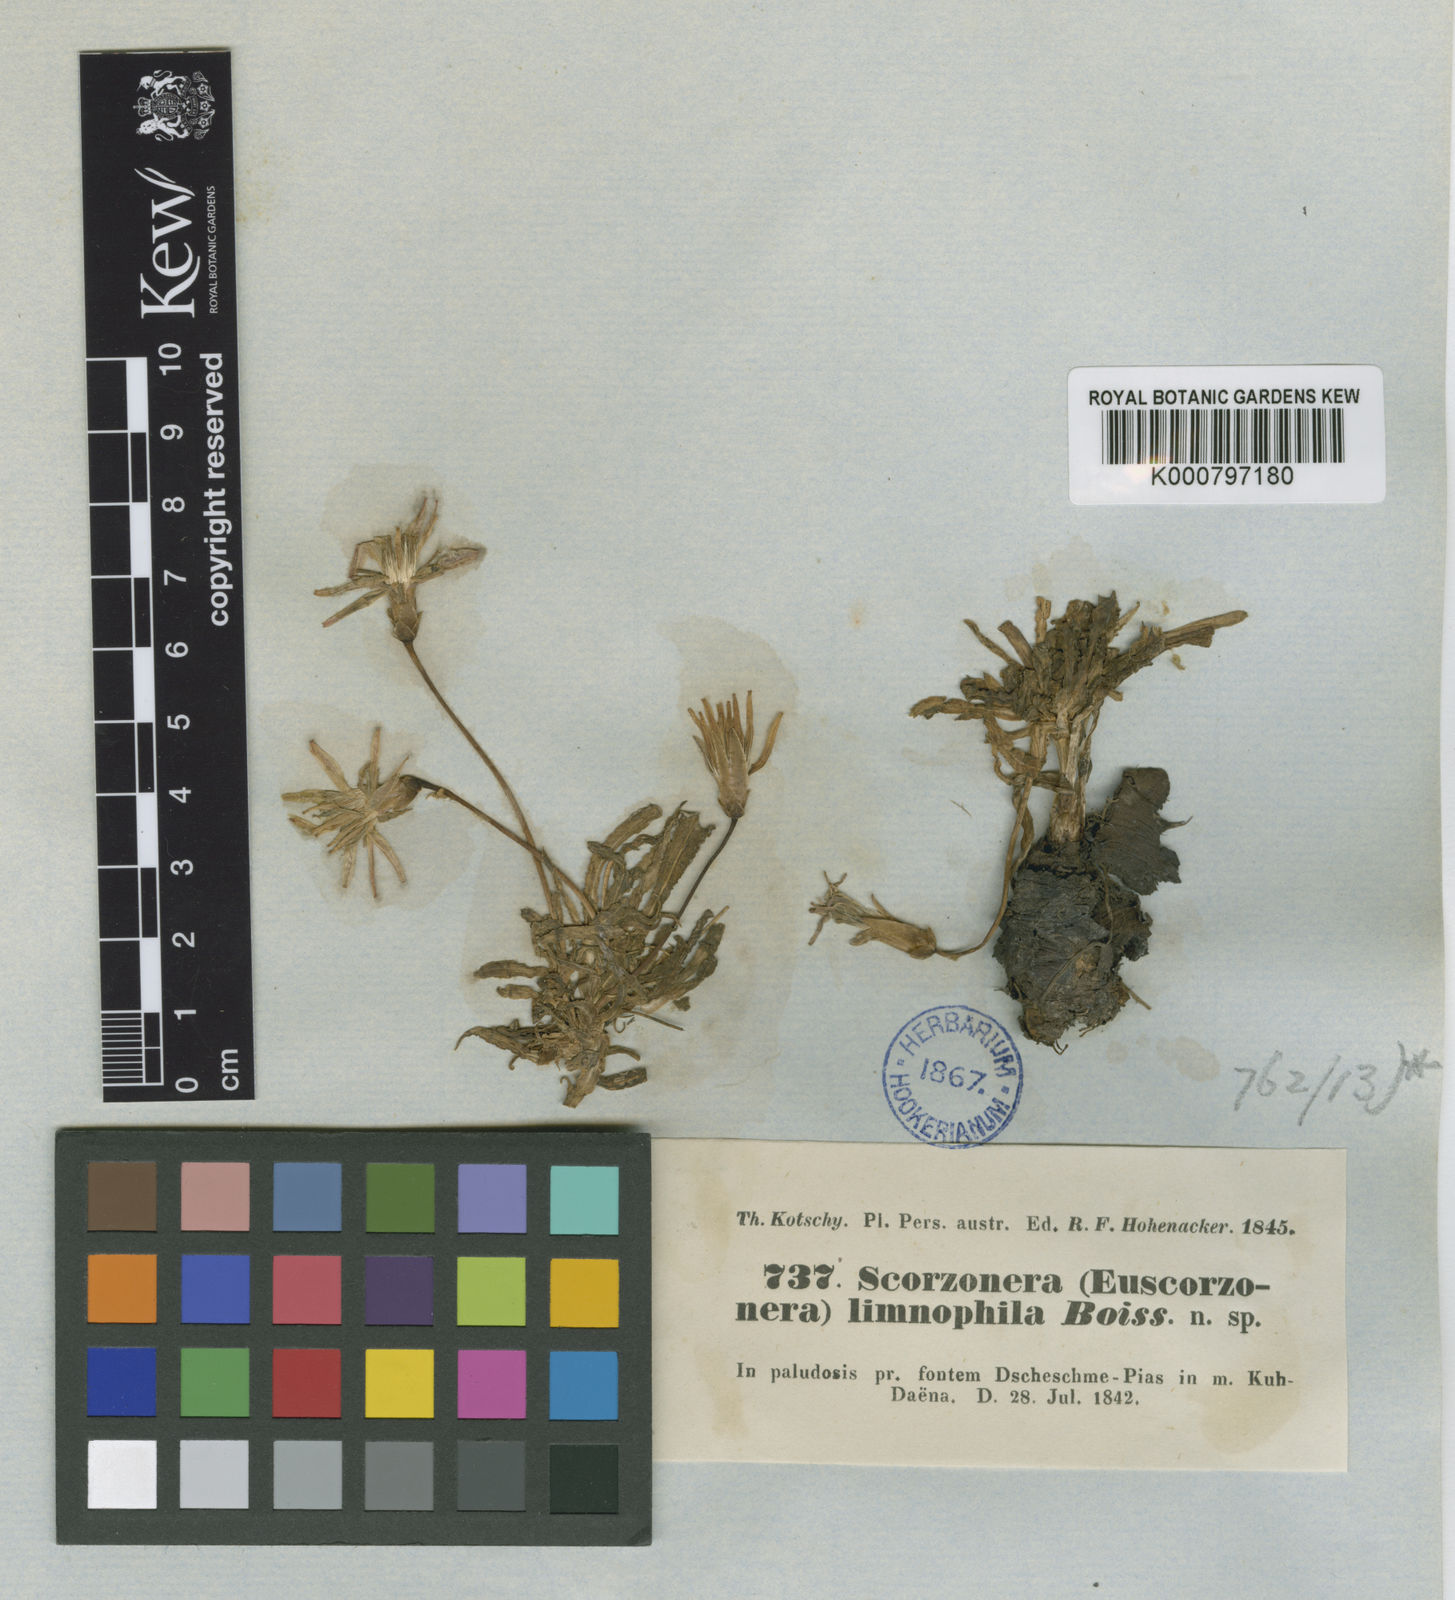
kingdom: Plantae
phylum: Tracheophyta
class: Magnoliopsida
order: Asterales
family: Asteraceae
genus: Scorzonera
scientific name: Scorzonera limnophila
